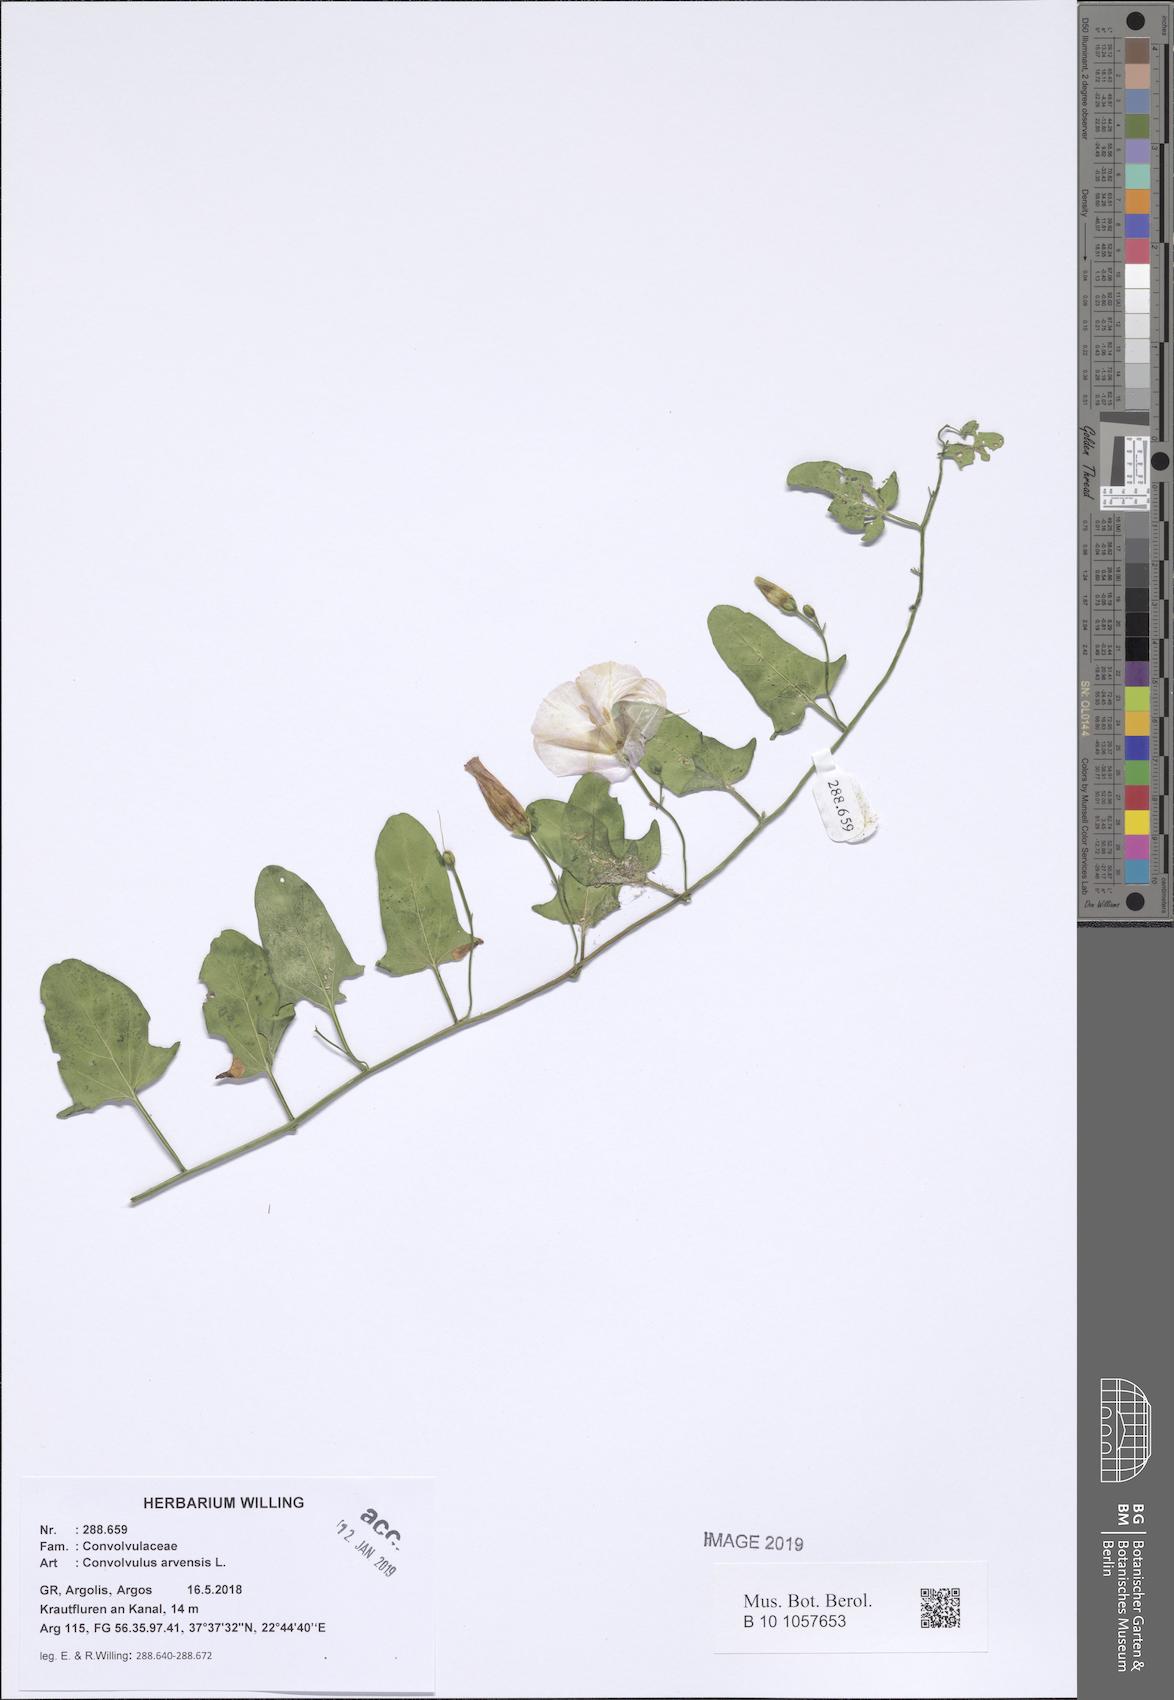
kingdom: Plantae
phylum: Tracheophyta
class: Magnoliopsida
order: Solanales
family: Convolvulaceae
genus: Convolvulus
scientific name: Convolvulus arvensis
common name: Field bindweed
